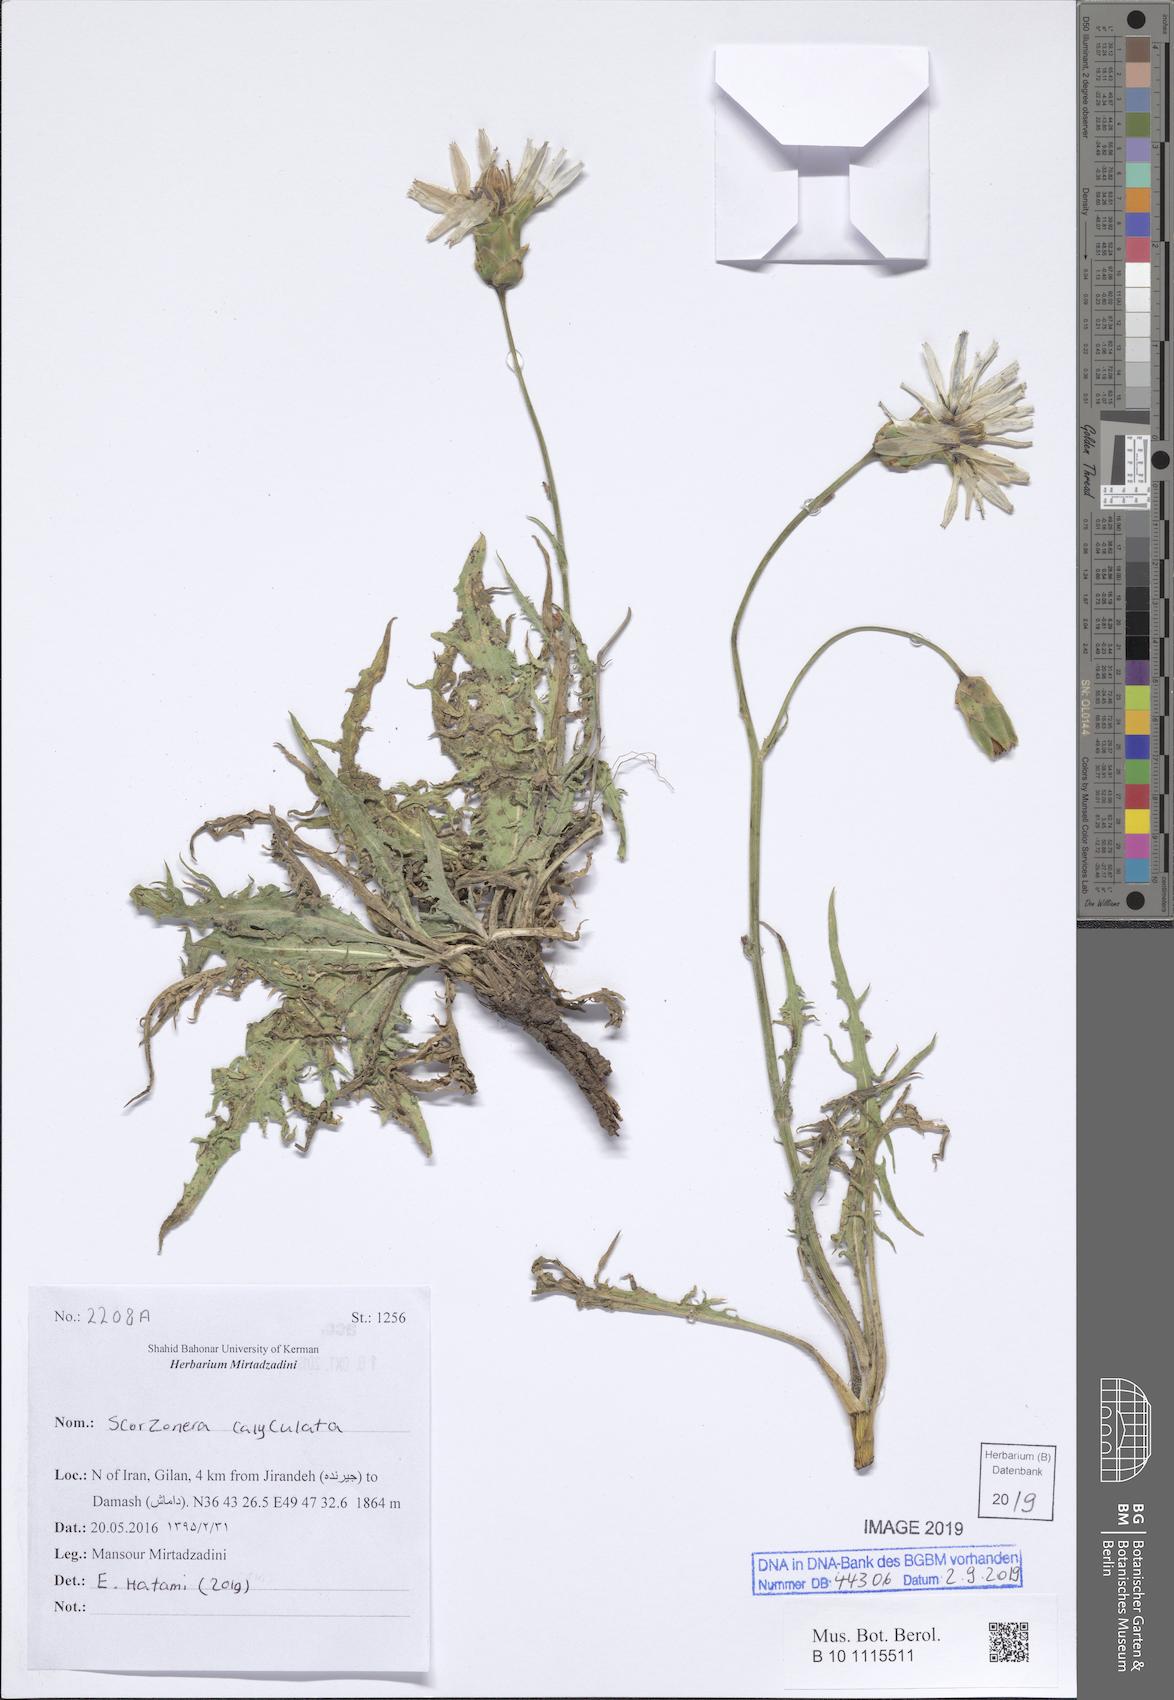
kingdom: Plantae
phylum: Tracheophyta
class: Magnoliopsida
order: Asterales
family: Asteraceae
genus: Aslia
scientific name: Aslia calyculata
